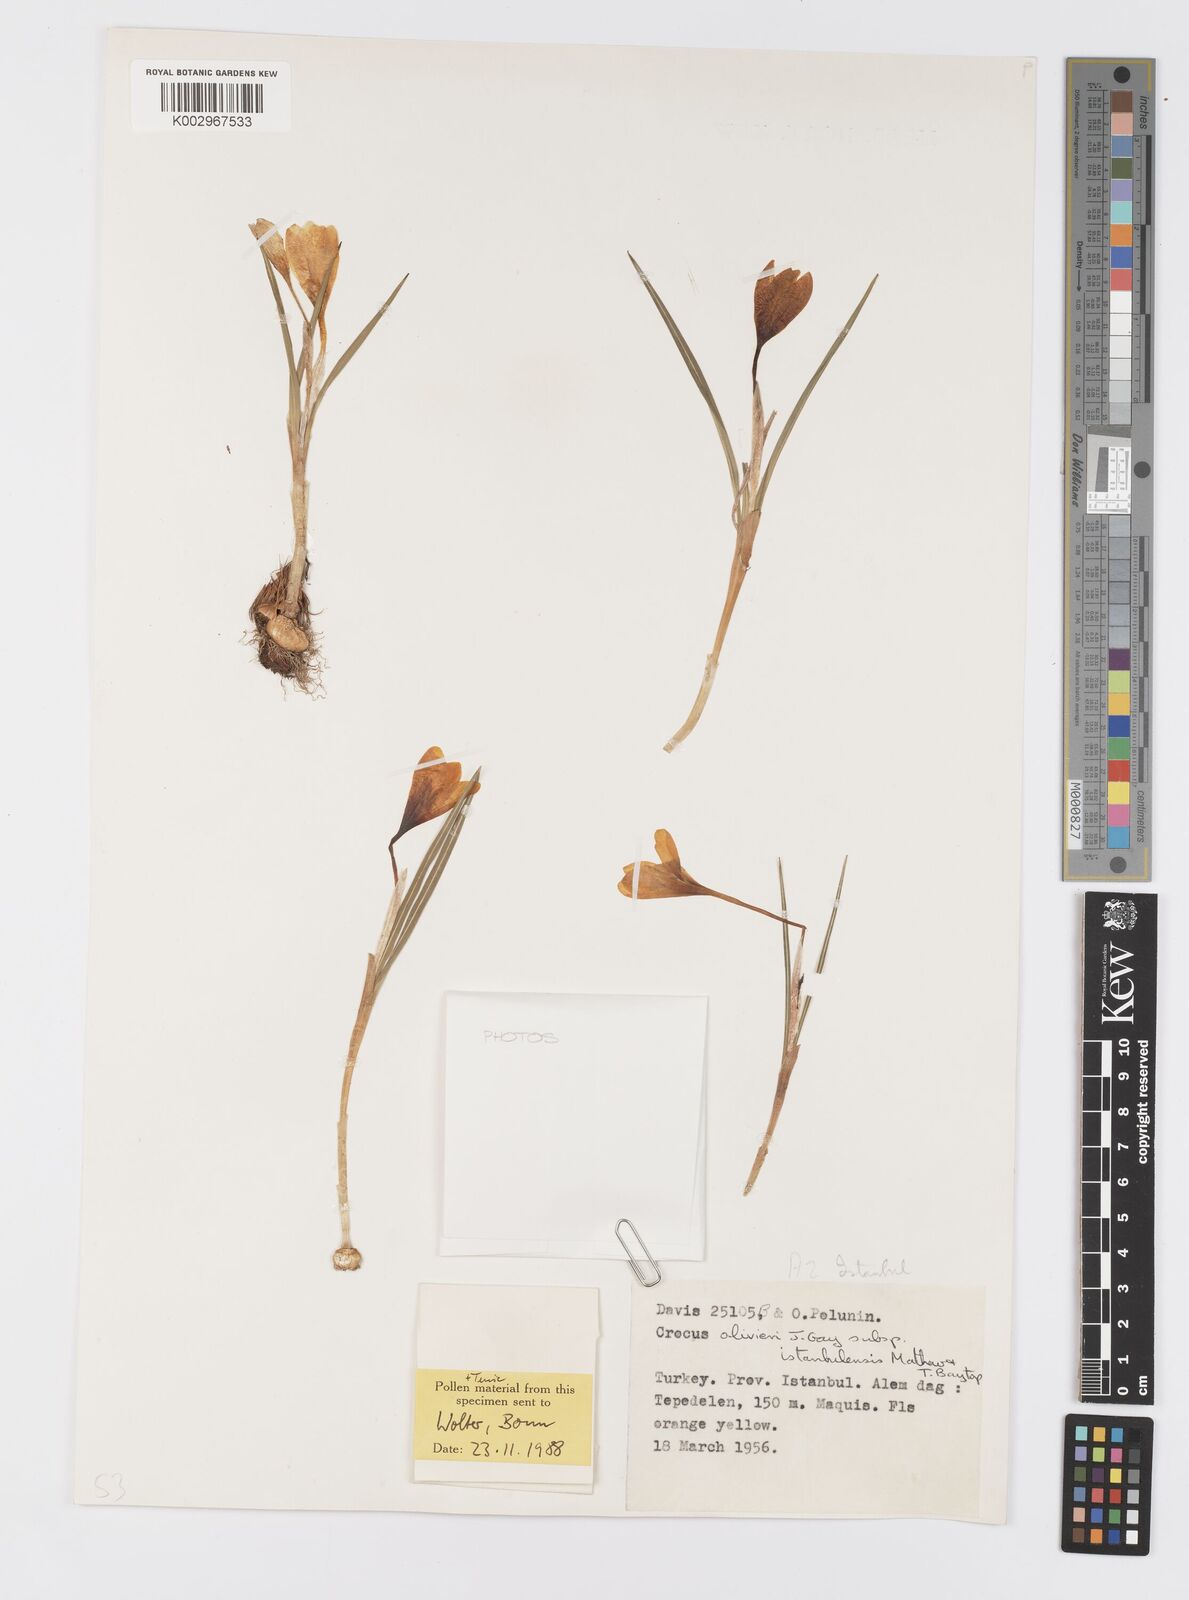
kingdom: Plantae
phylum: Tracheophyta
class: Liliopsida
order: Asparagales
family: Iridaceae
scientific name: Iridaceae
